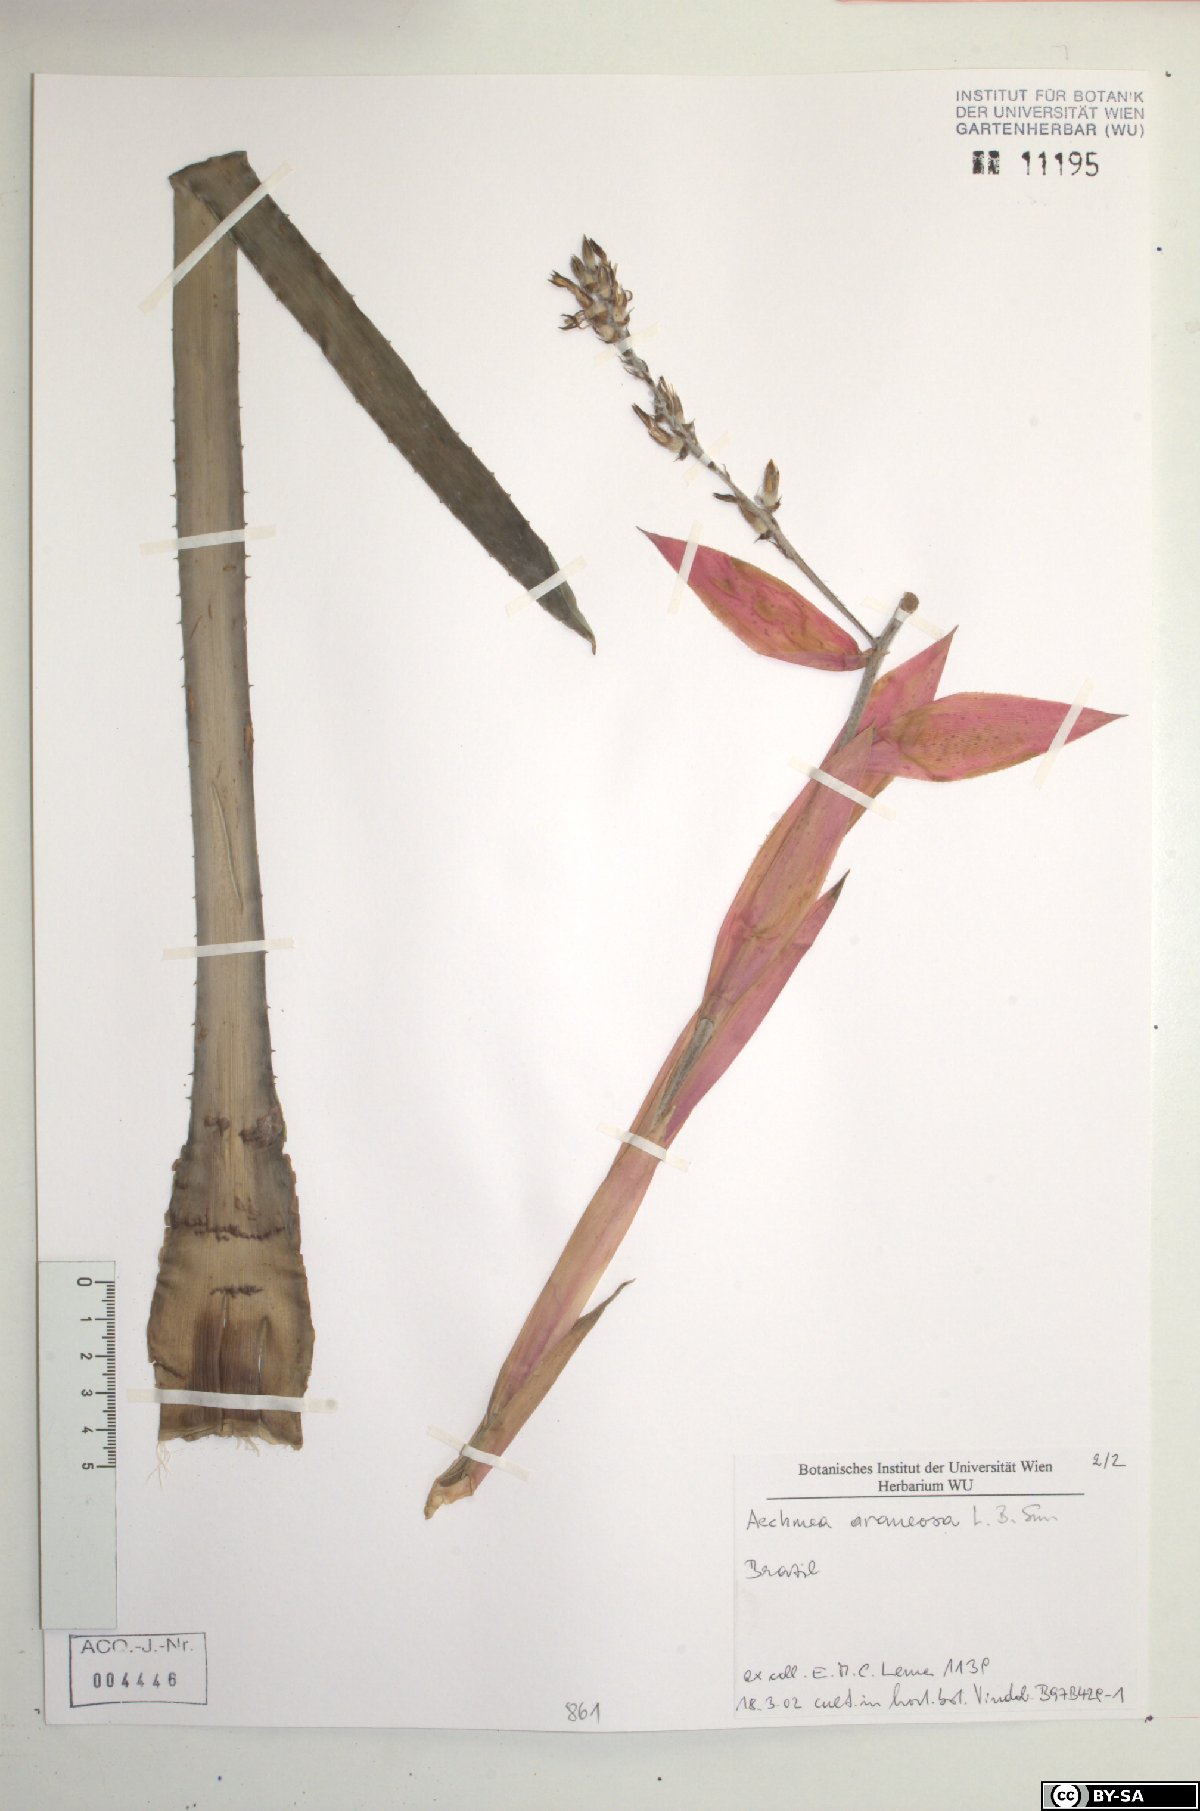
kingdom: Plantae
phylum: Tracheophyta
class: Liliopsida
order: Poales
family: Bromeliaceae
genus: Aechmea
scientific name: Aechmea araneosa
